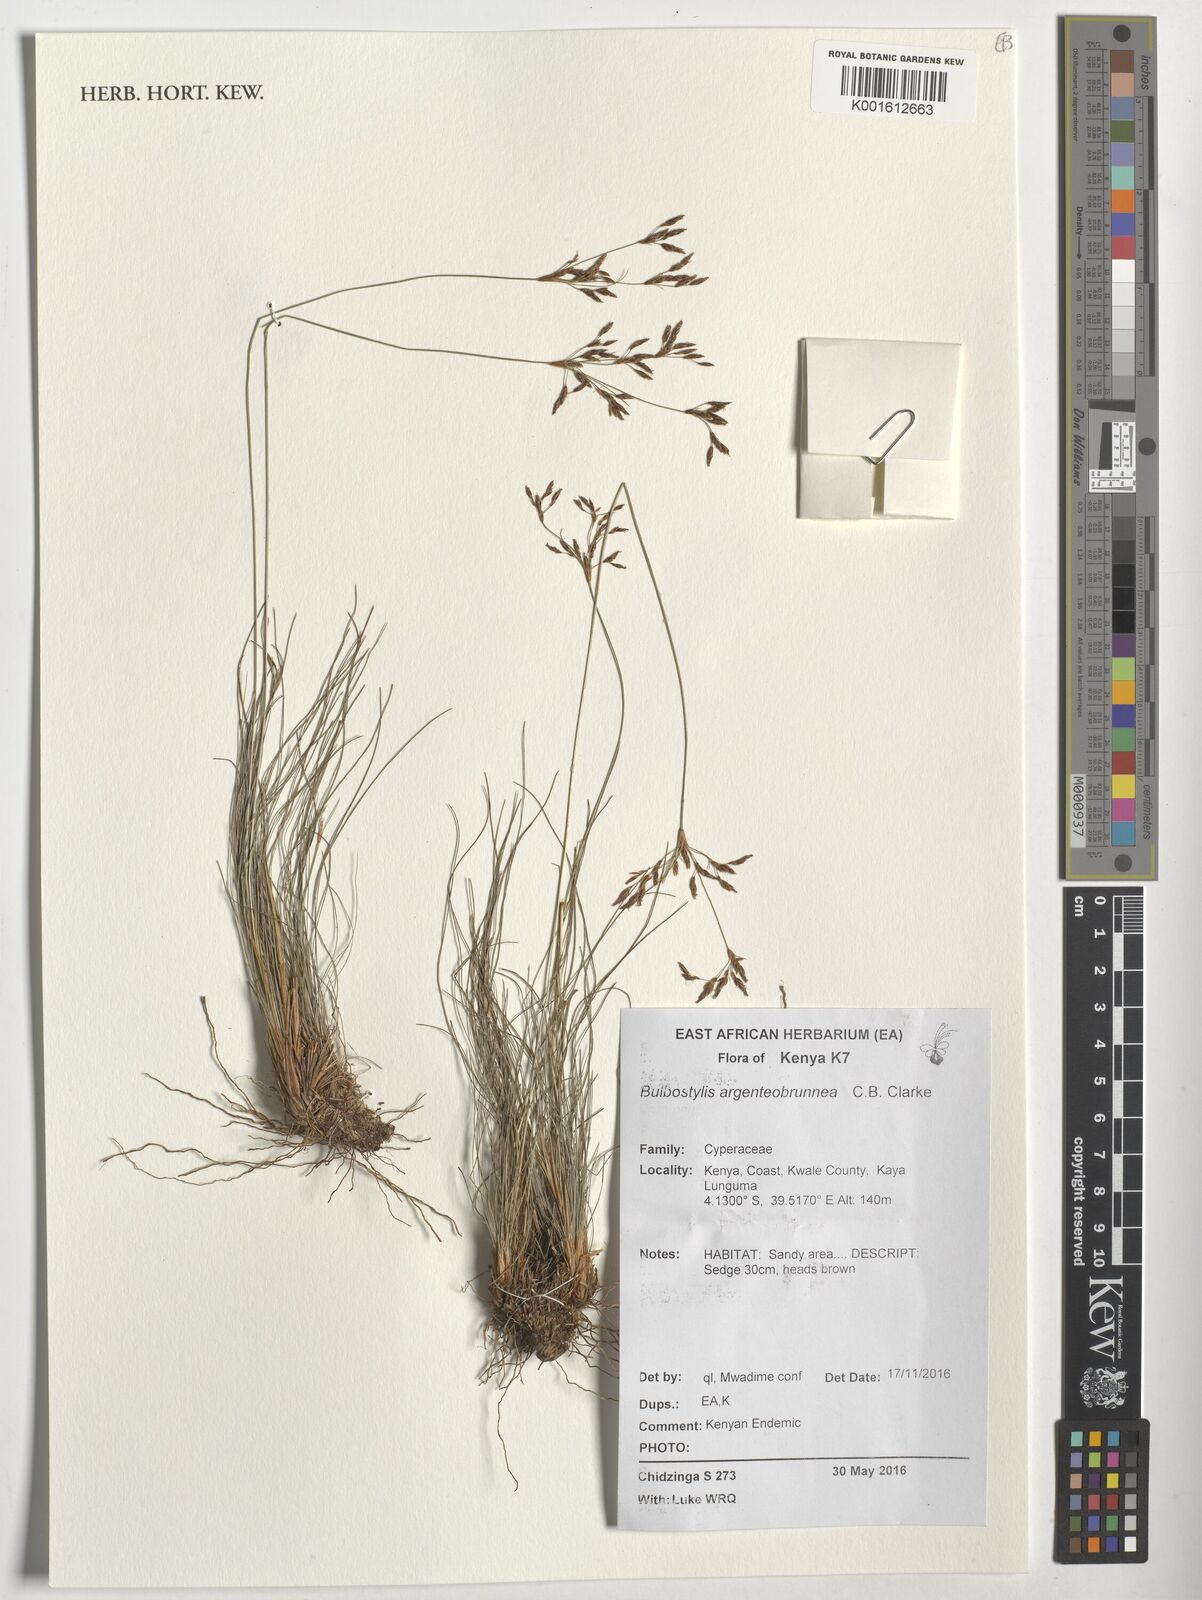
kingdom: Plantae
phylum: Tracheophyta
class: Liliopsida
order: Poales
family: Cyperaceae
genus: Bulbostylis
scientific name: Bulbostylis argenteobrunea
